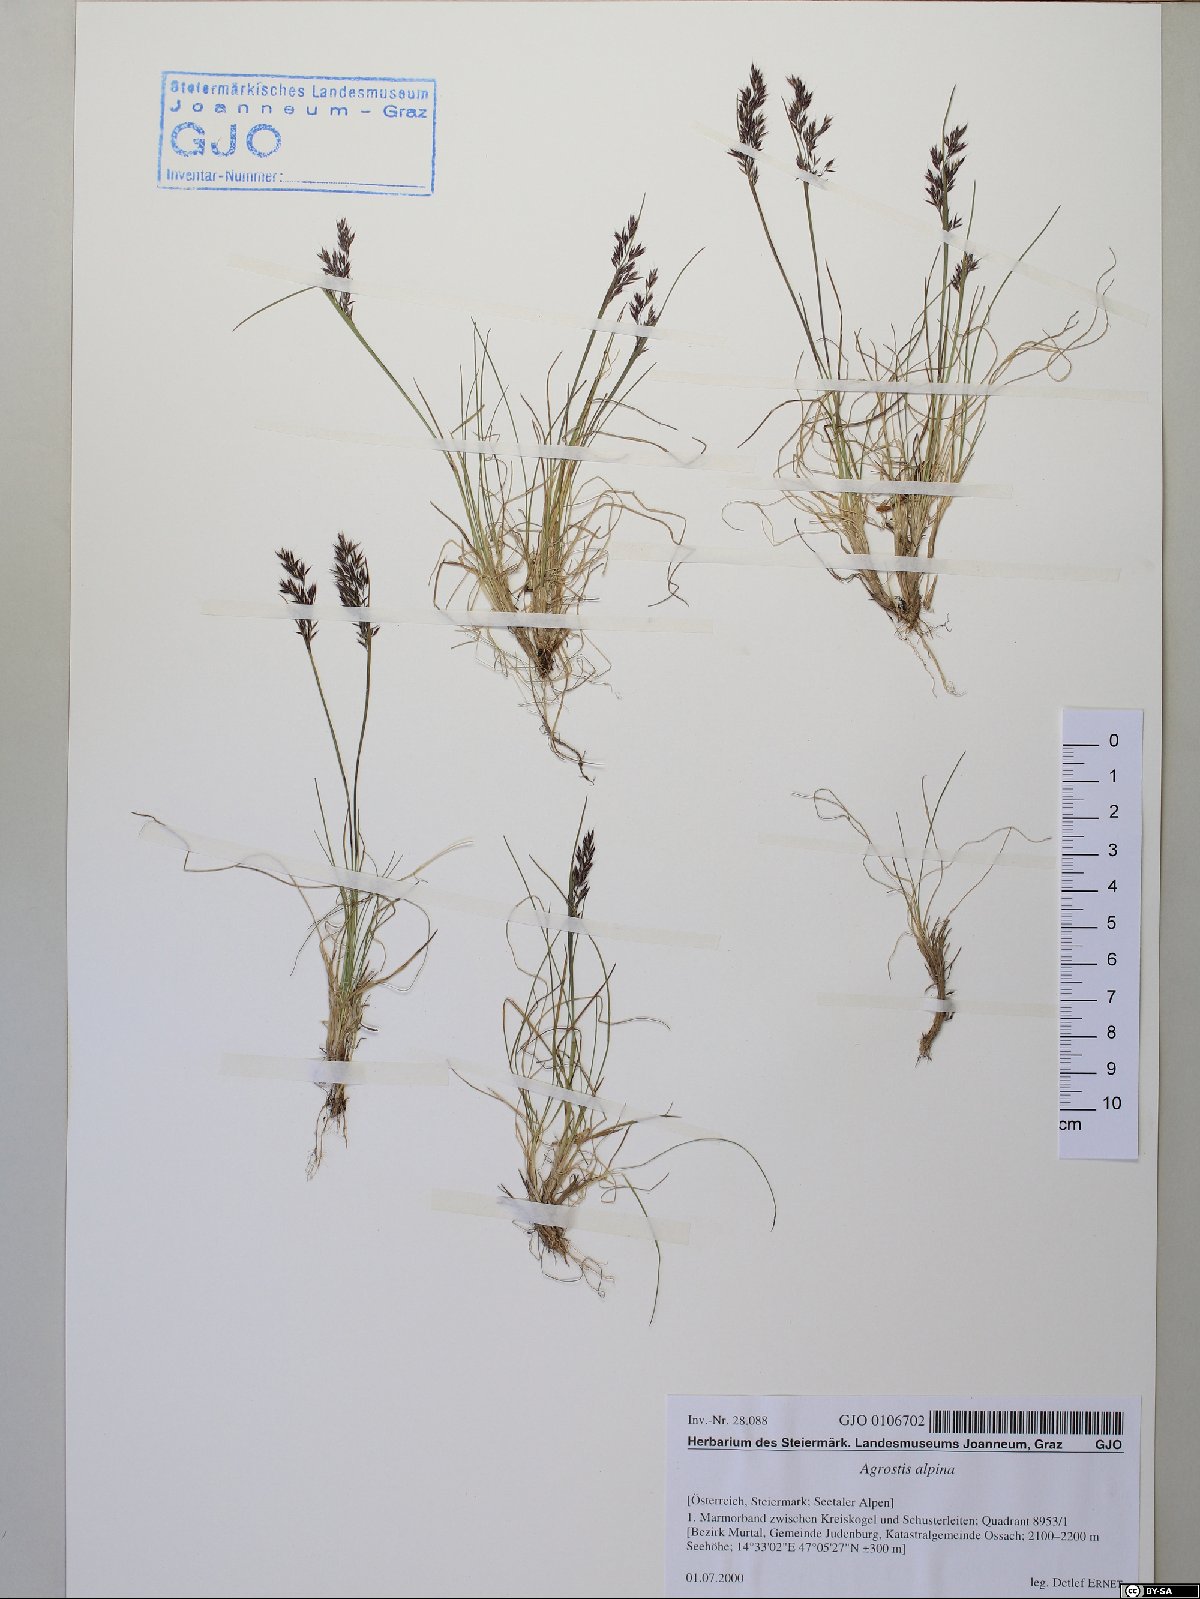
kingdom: Plantae
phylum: Tracheophyta
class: Liliopsida
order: Poales
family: Poaceae
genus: Alpagrostis
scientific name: Alpagrostis alpina
